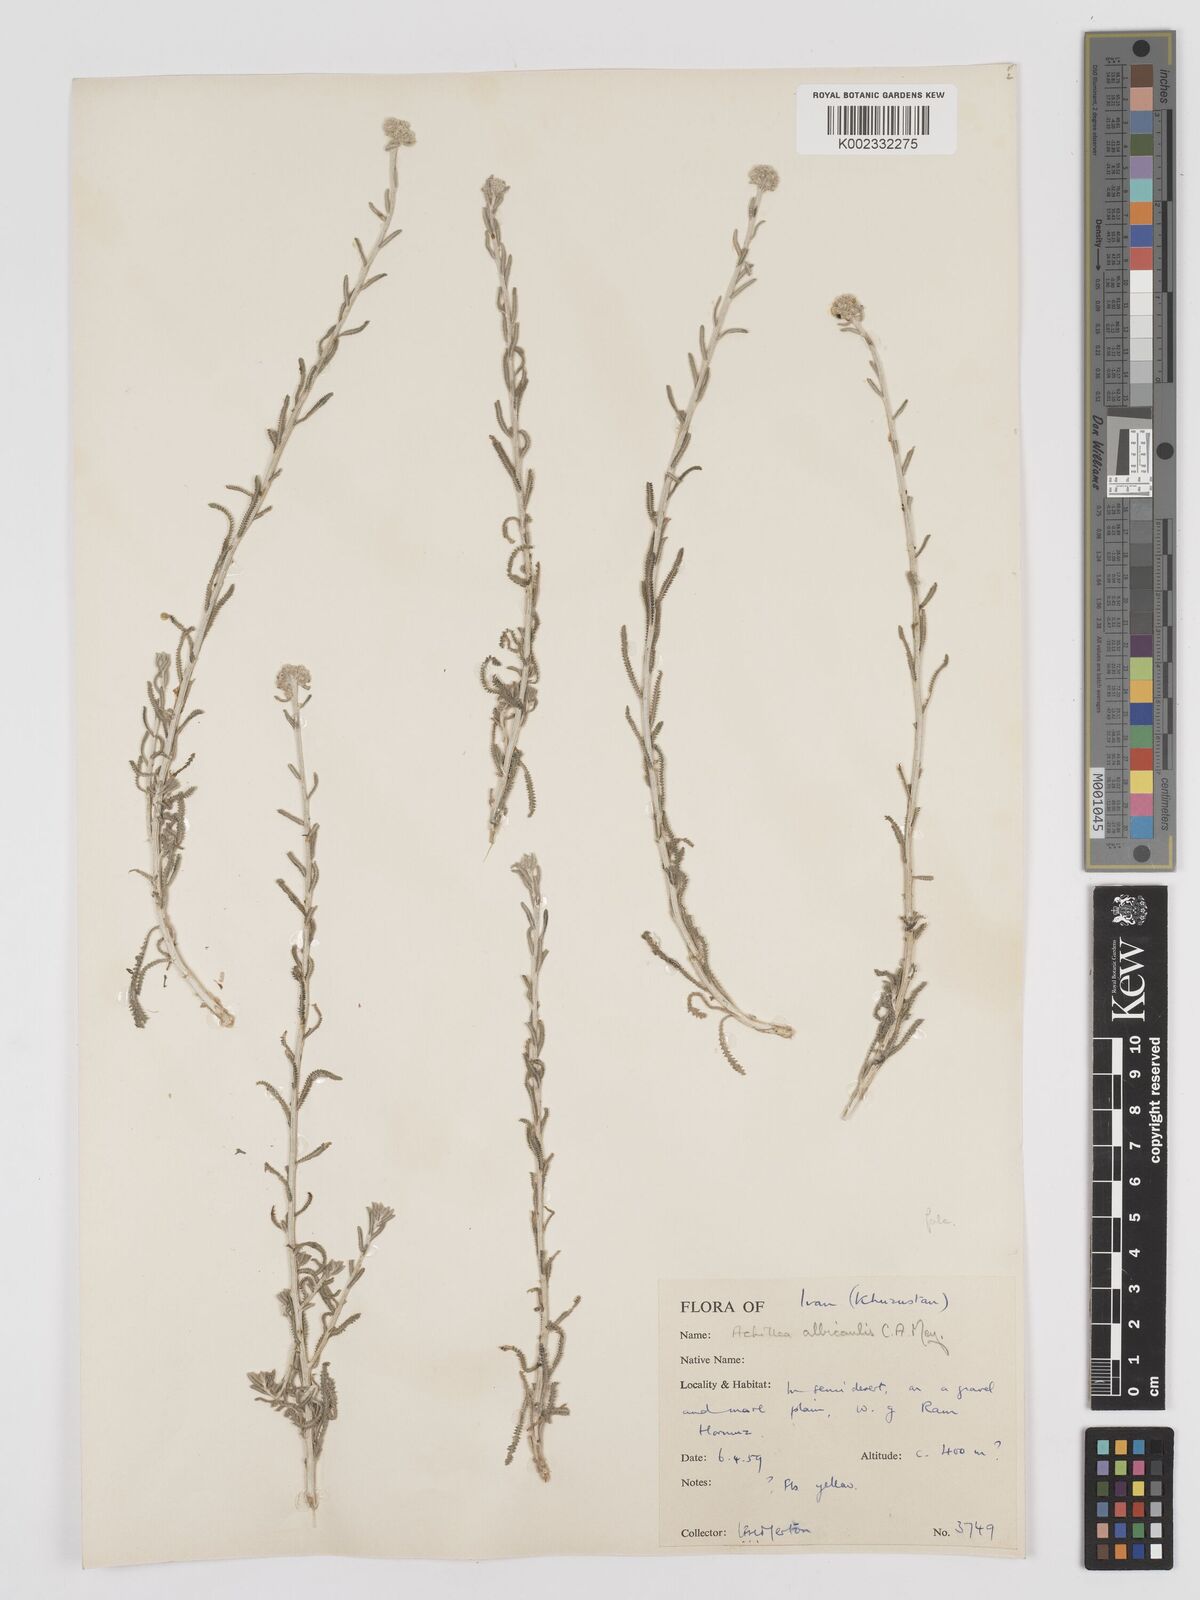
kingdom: Plantae
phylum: Tracheophyta
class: Magnoliopsida
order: Asterales
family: Asteraceae
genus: Achillea
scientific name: Achillea tenuifolia
